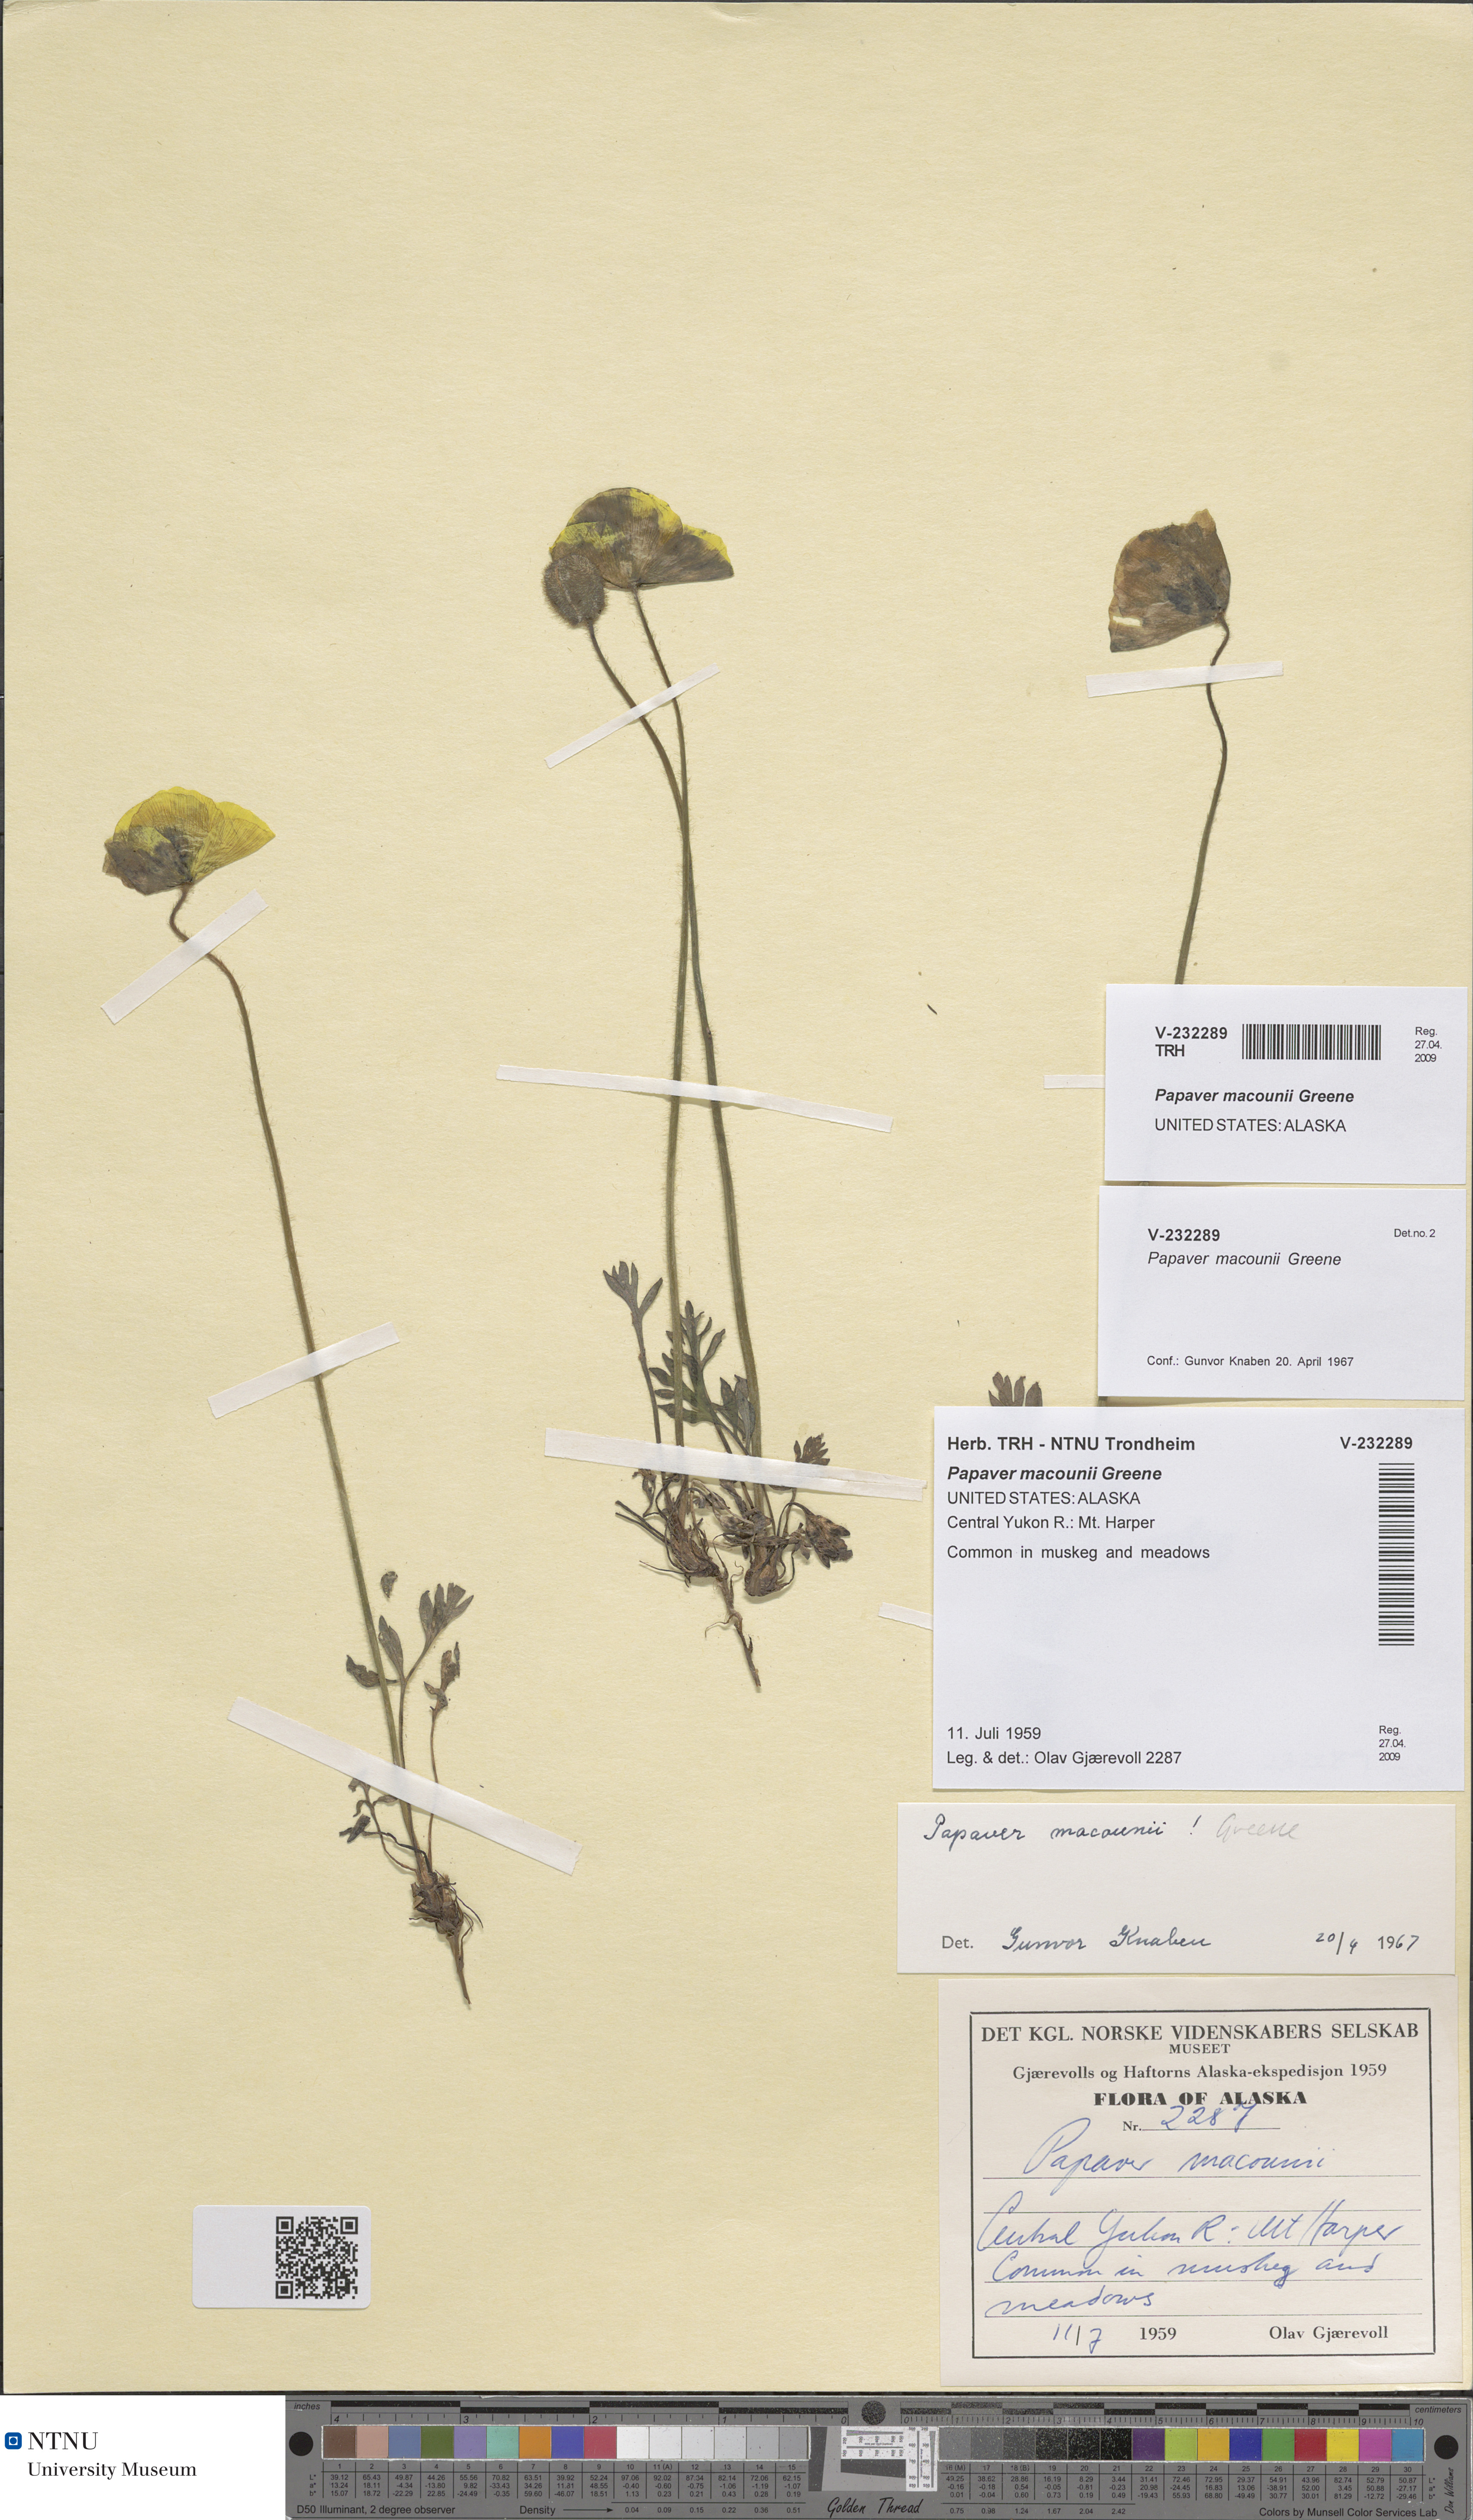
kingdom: Plantae
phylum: Tracheophyta
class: Magnoliopsida
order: Ranunculales
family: Papaveraceae
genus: Papaver
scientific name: Papaver macounii
